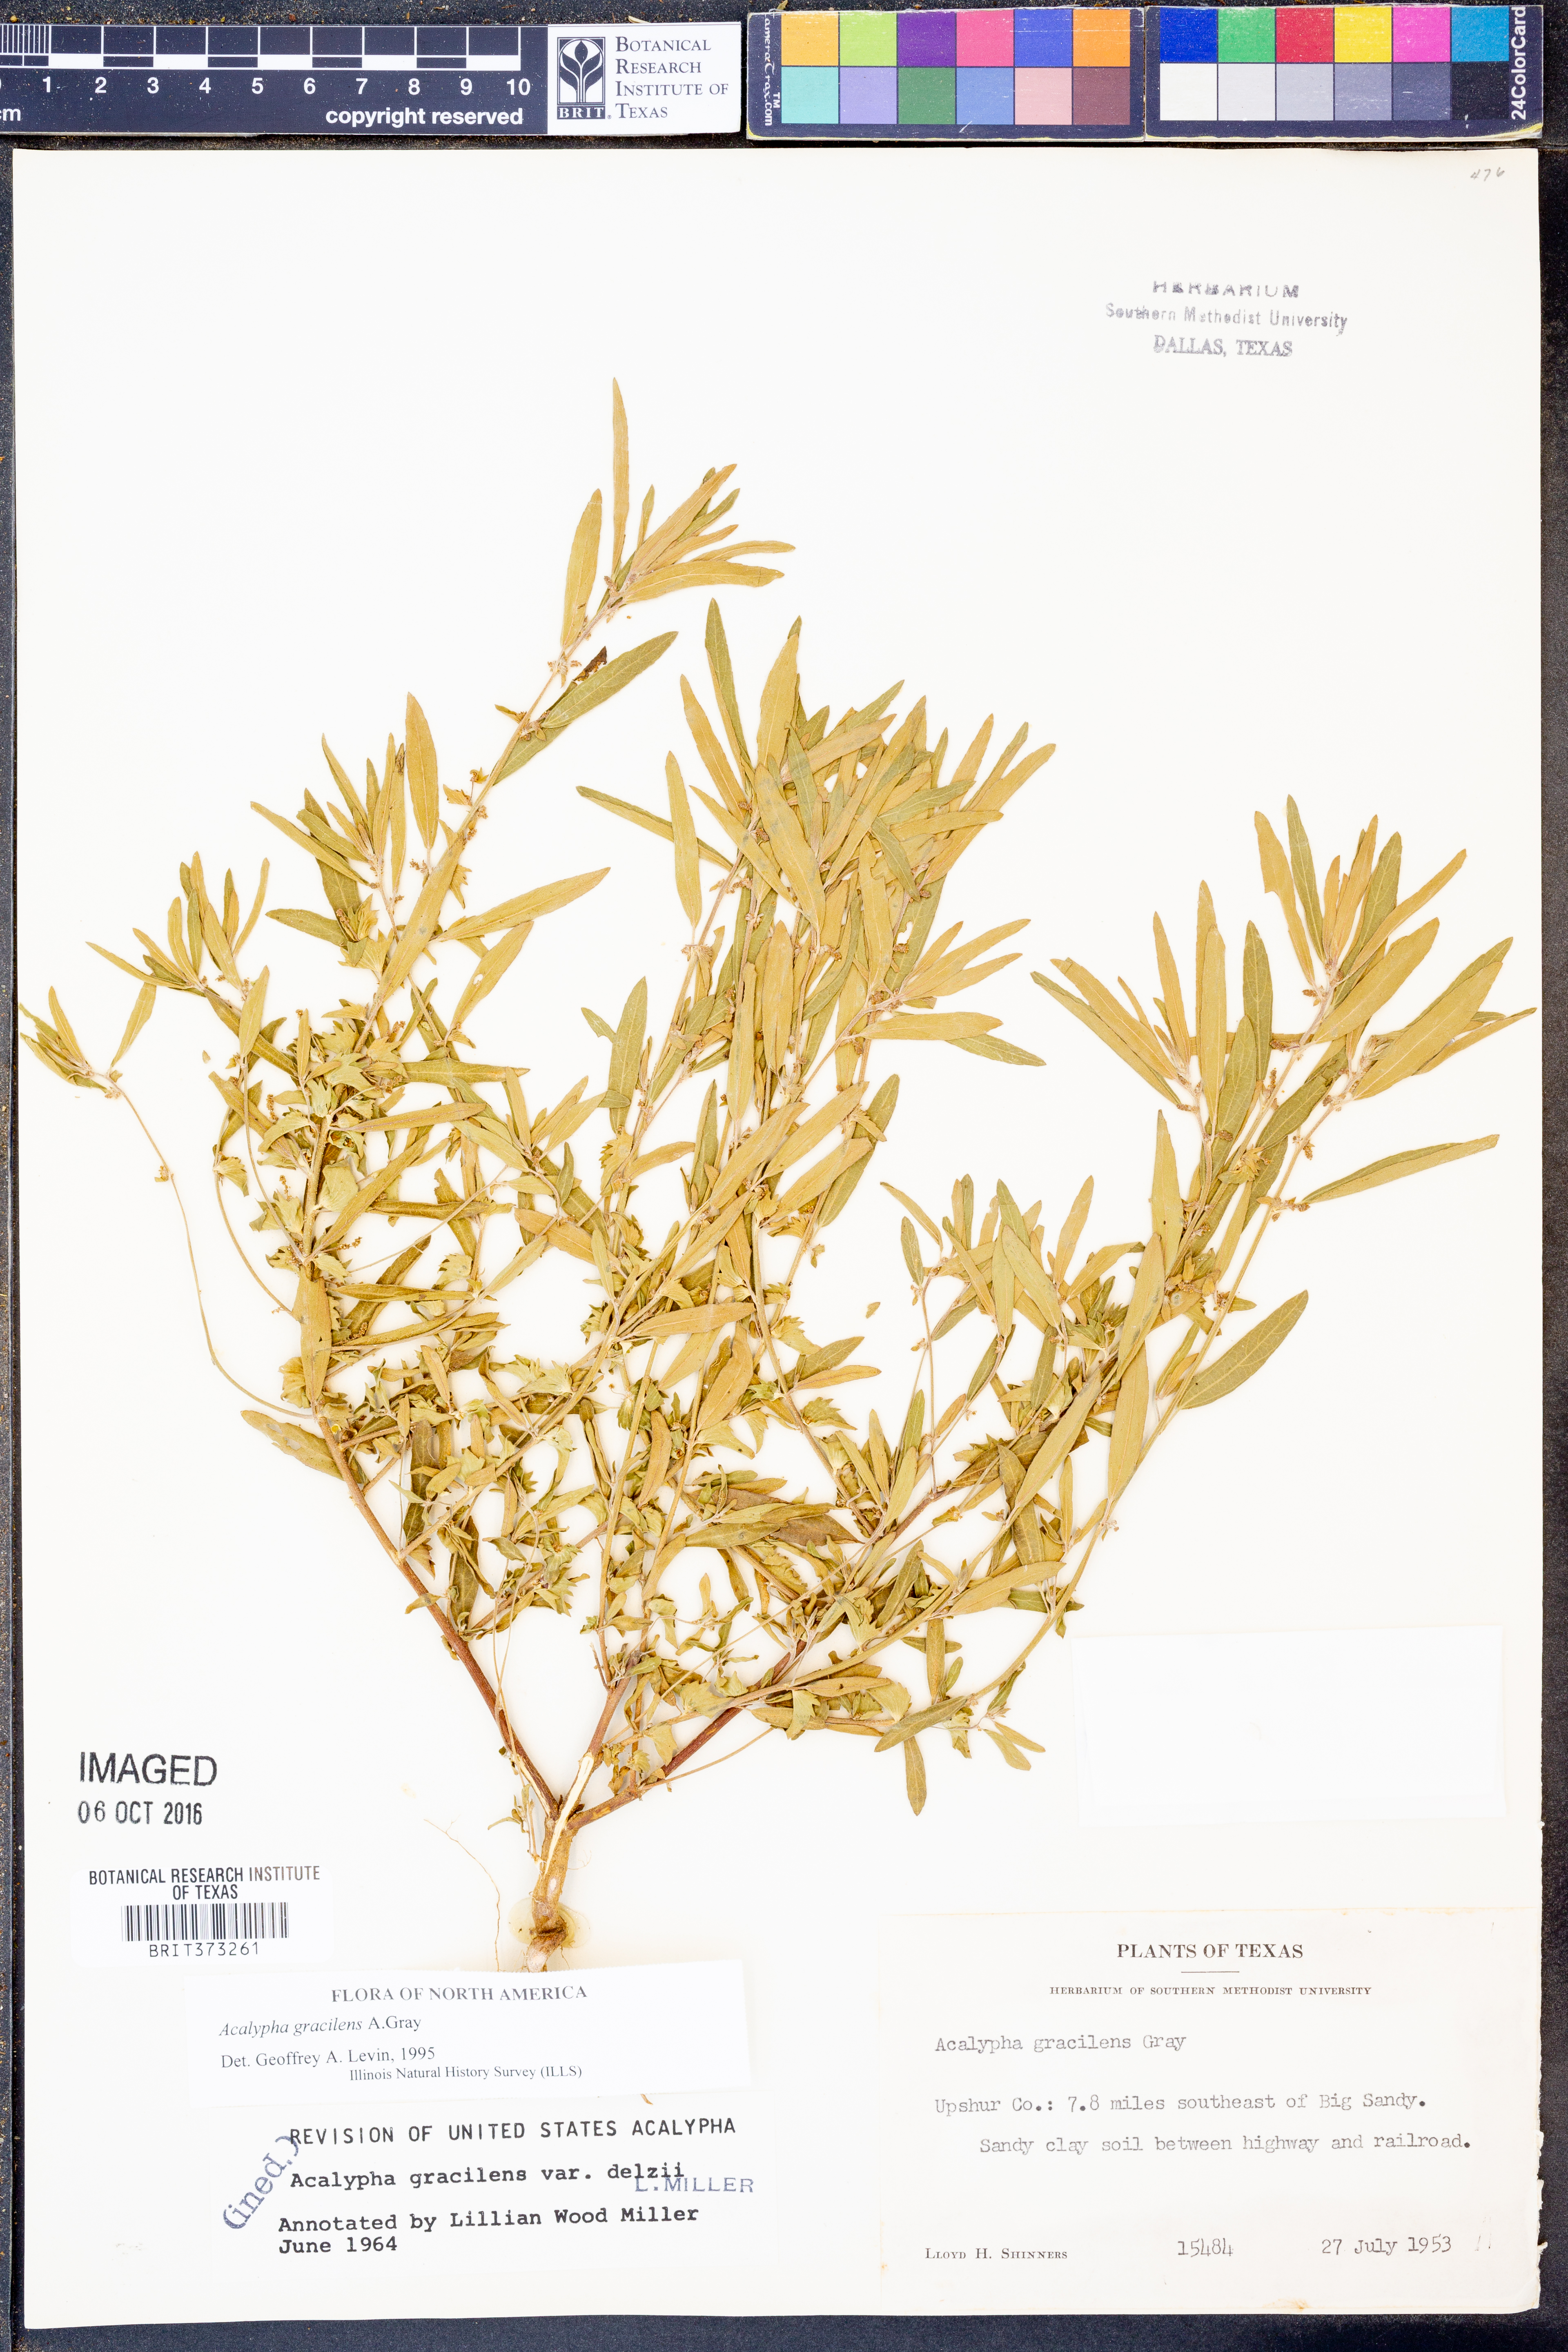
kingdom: Plantae
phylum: Tracheophyta
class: Magnoliopsida
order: Malpighiales
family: Euphorbiaceae
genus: Acalypha
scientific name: Acalypha gracilens
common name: Slender three-seeded mercury
